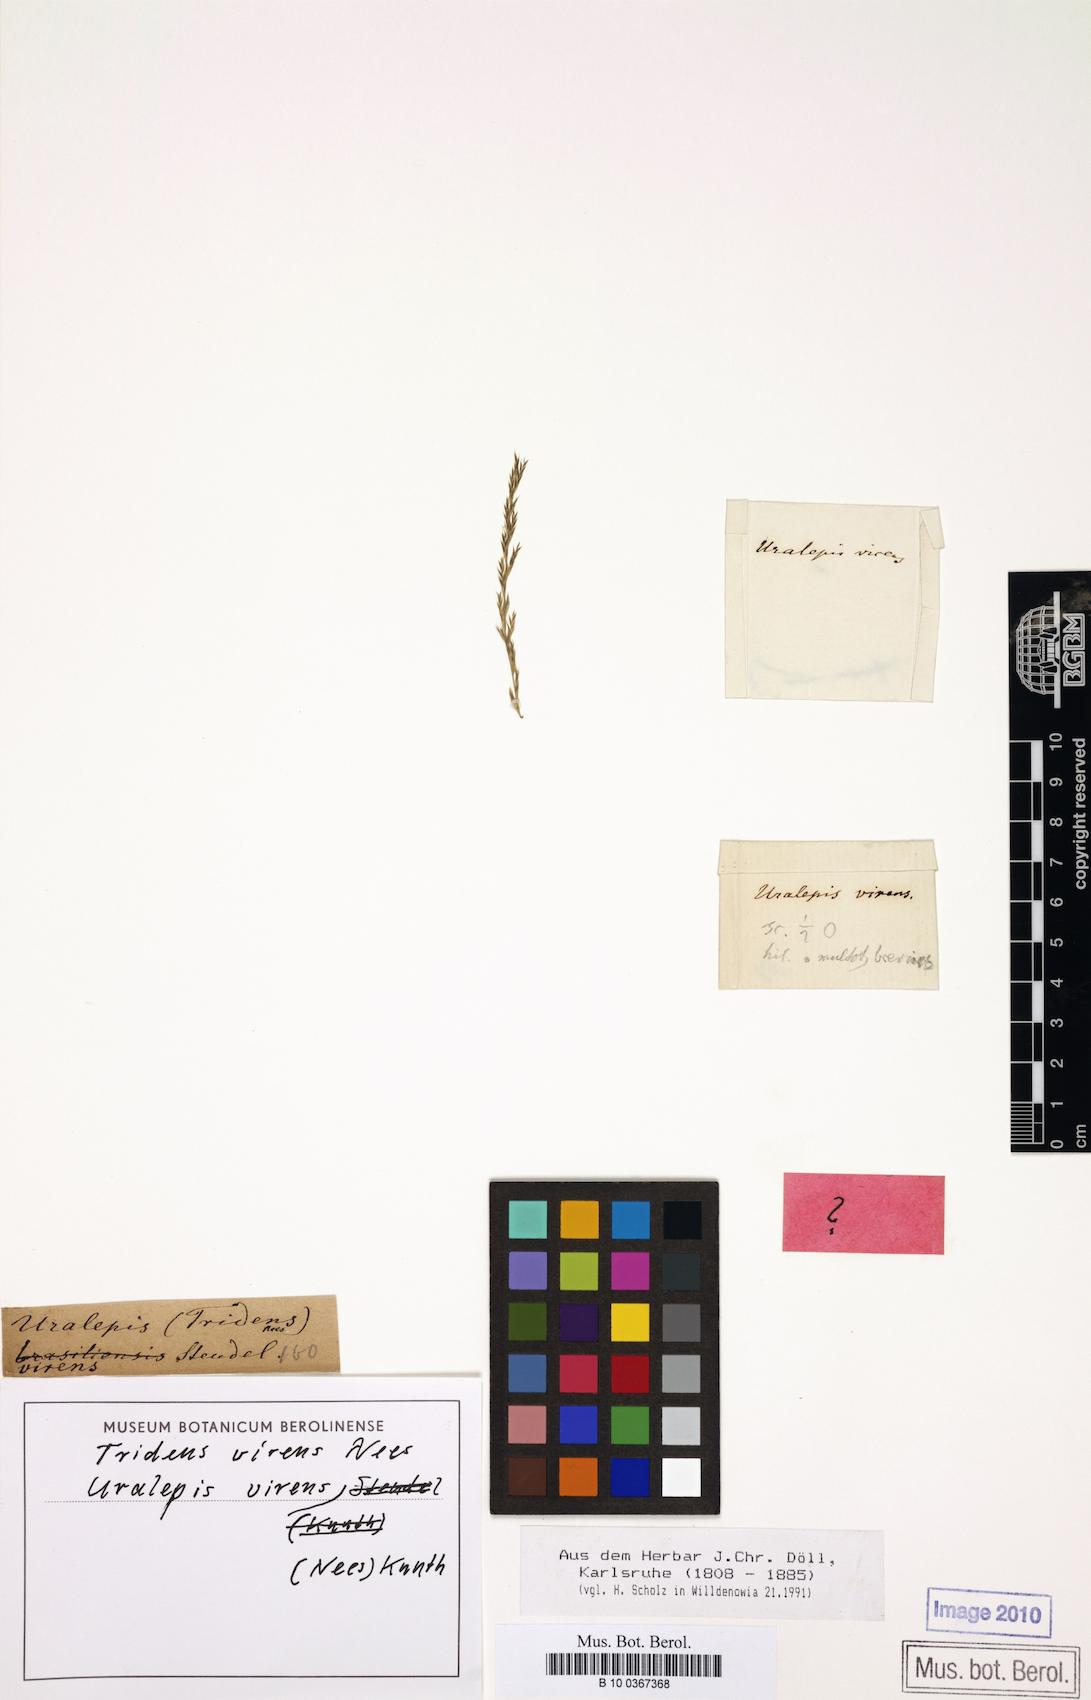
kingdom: Plantae
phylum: Tracheophyta
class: Liliopsida
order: Poales
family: Poaceae
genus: Diplachne
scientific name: Diplachne fusca
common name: Brown beetle grass
